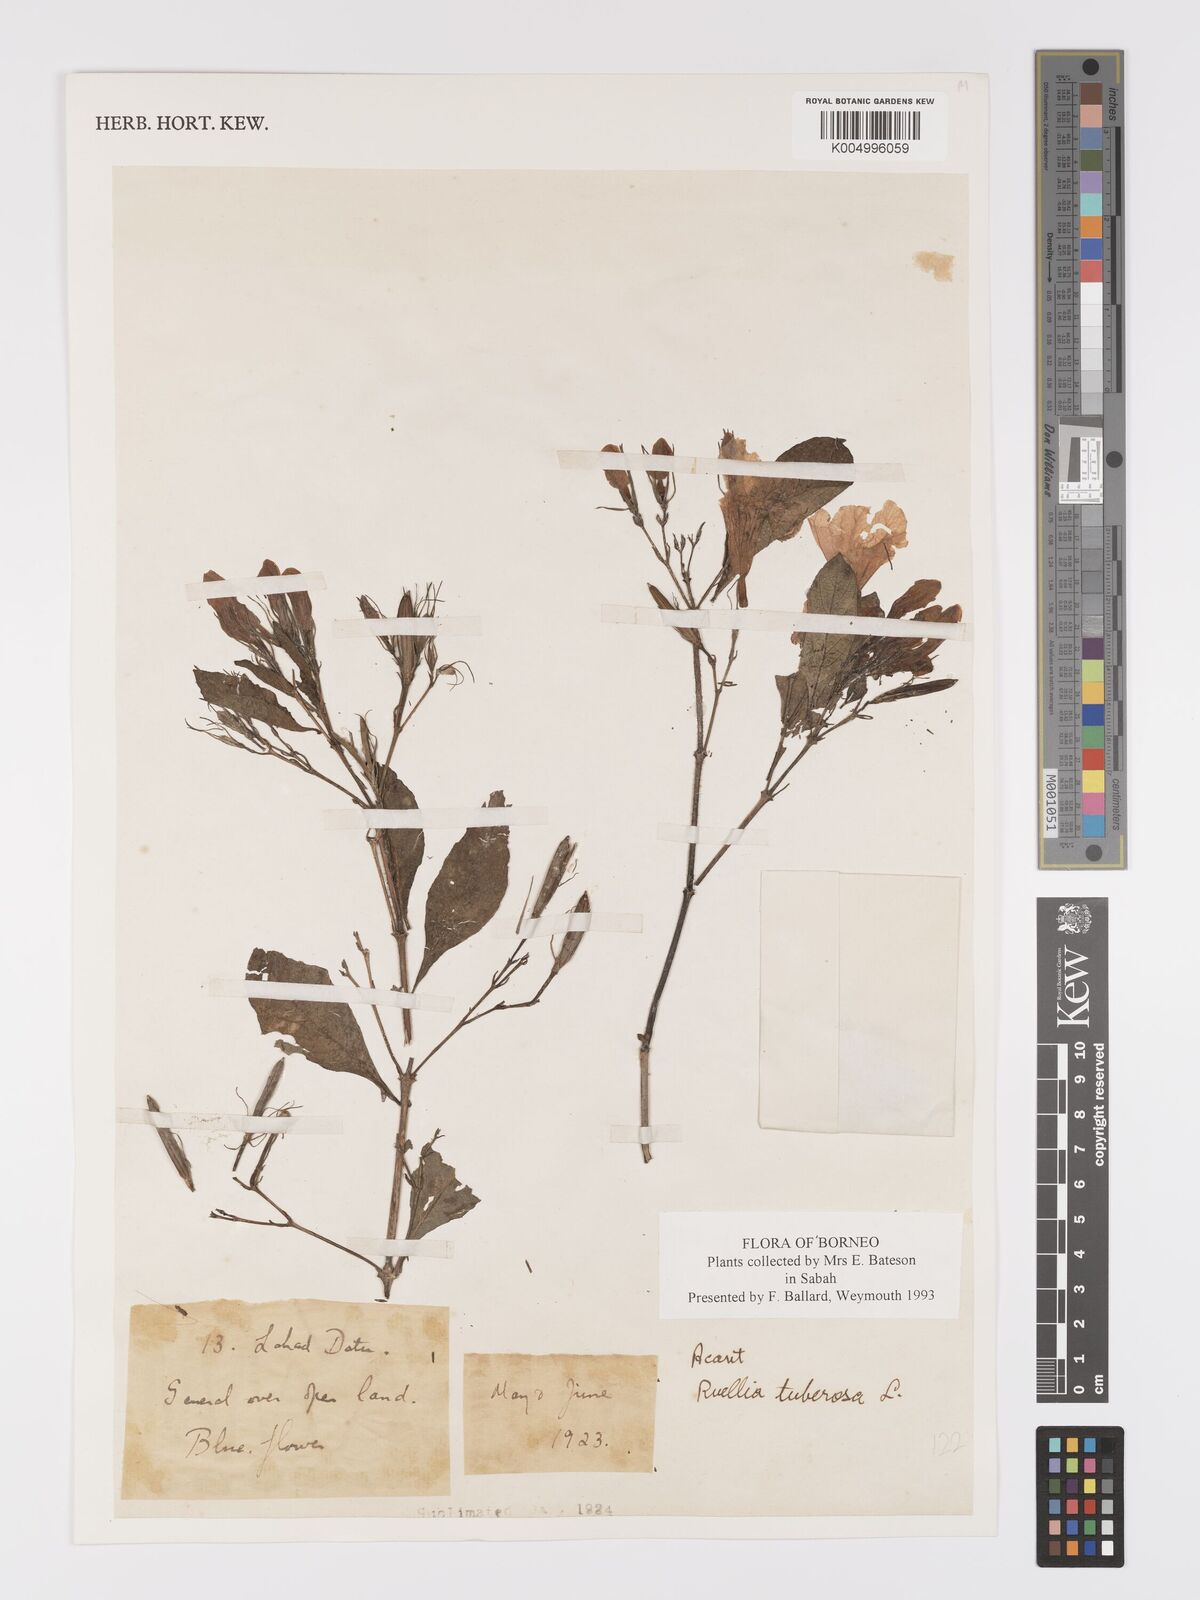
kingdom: Plantae
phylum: Tracheophyta
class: Magnoliopsida
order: Lamiales
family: Acanthaceae
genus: Ruellia
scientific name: Ruellia tuberosa
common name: Devil's bit
